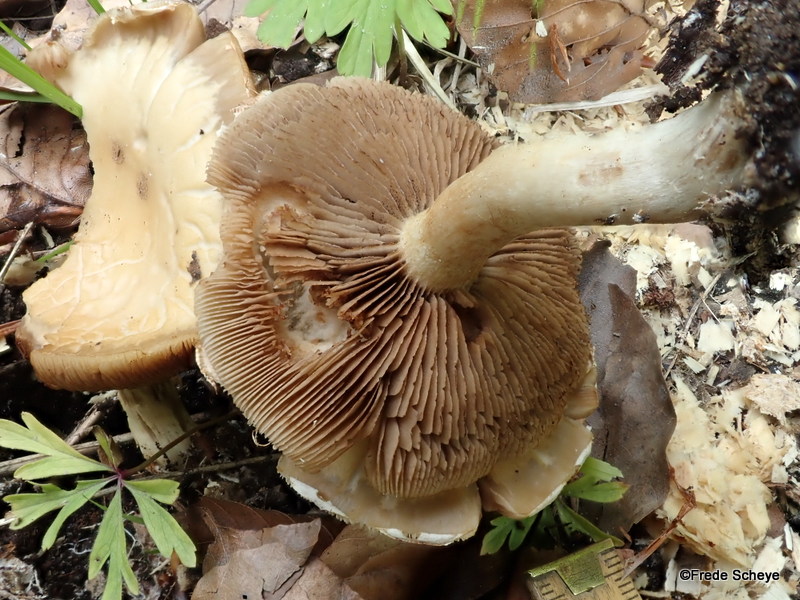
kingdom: Fungi
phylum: Basidiomycota
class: Agaricomycetes
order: Agaricales
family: Strophariaceae
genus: Agrocybe
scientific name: Agrocybe praecox
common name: tidlig agerhat
